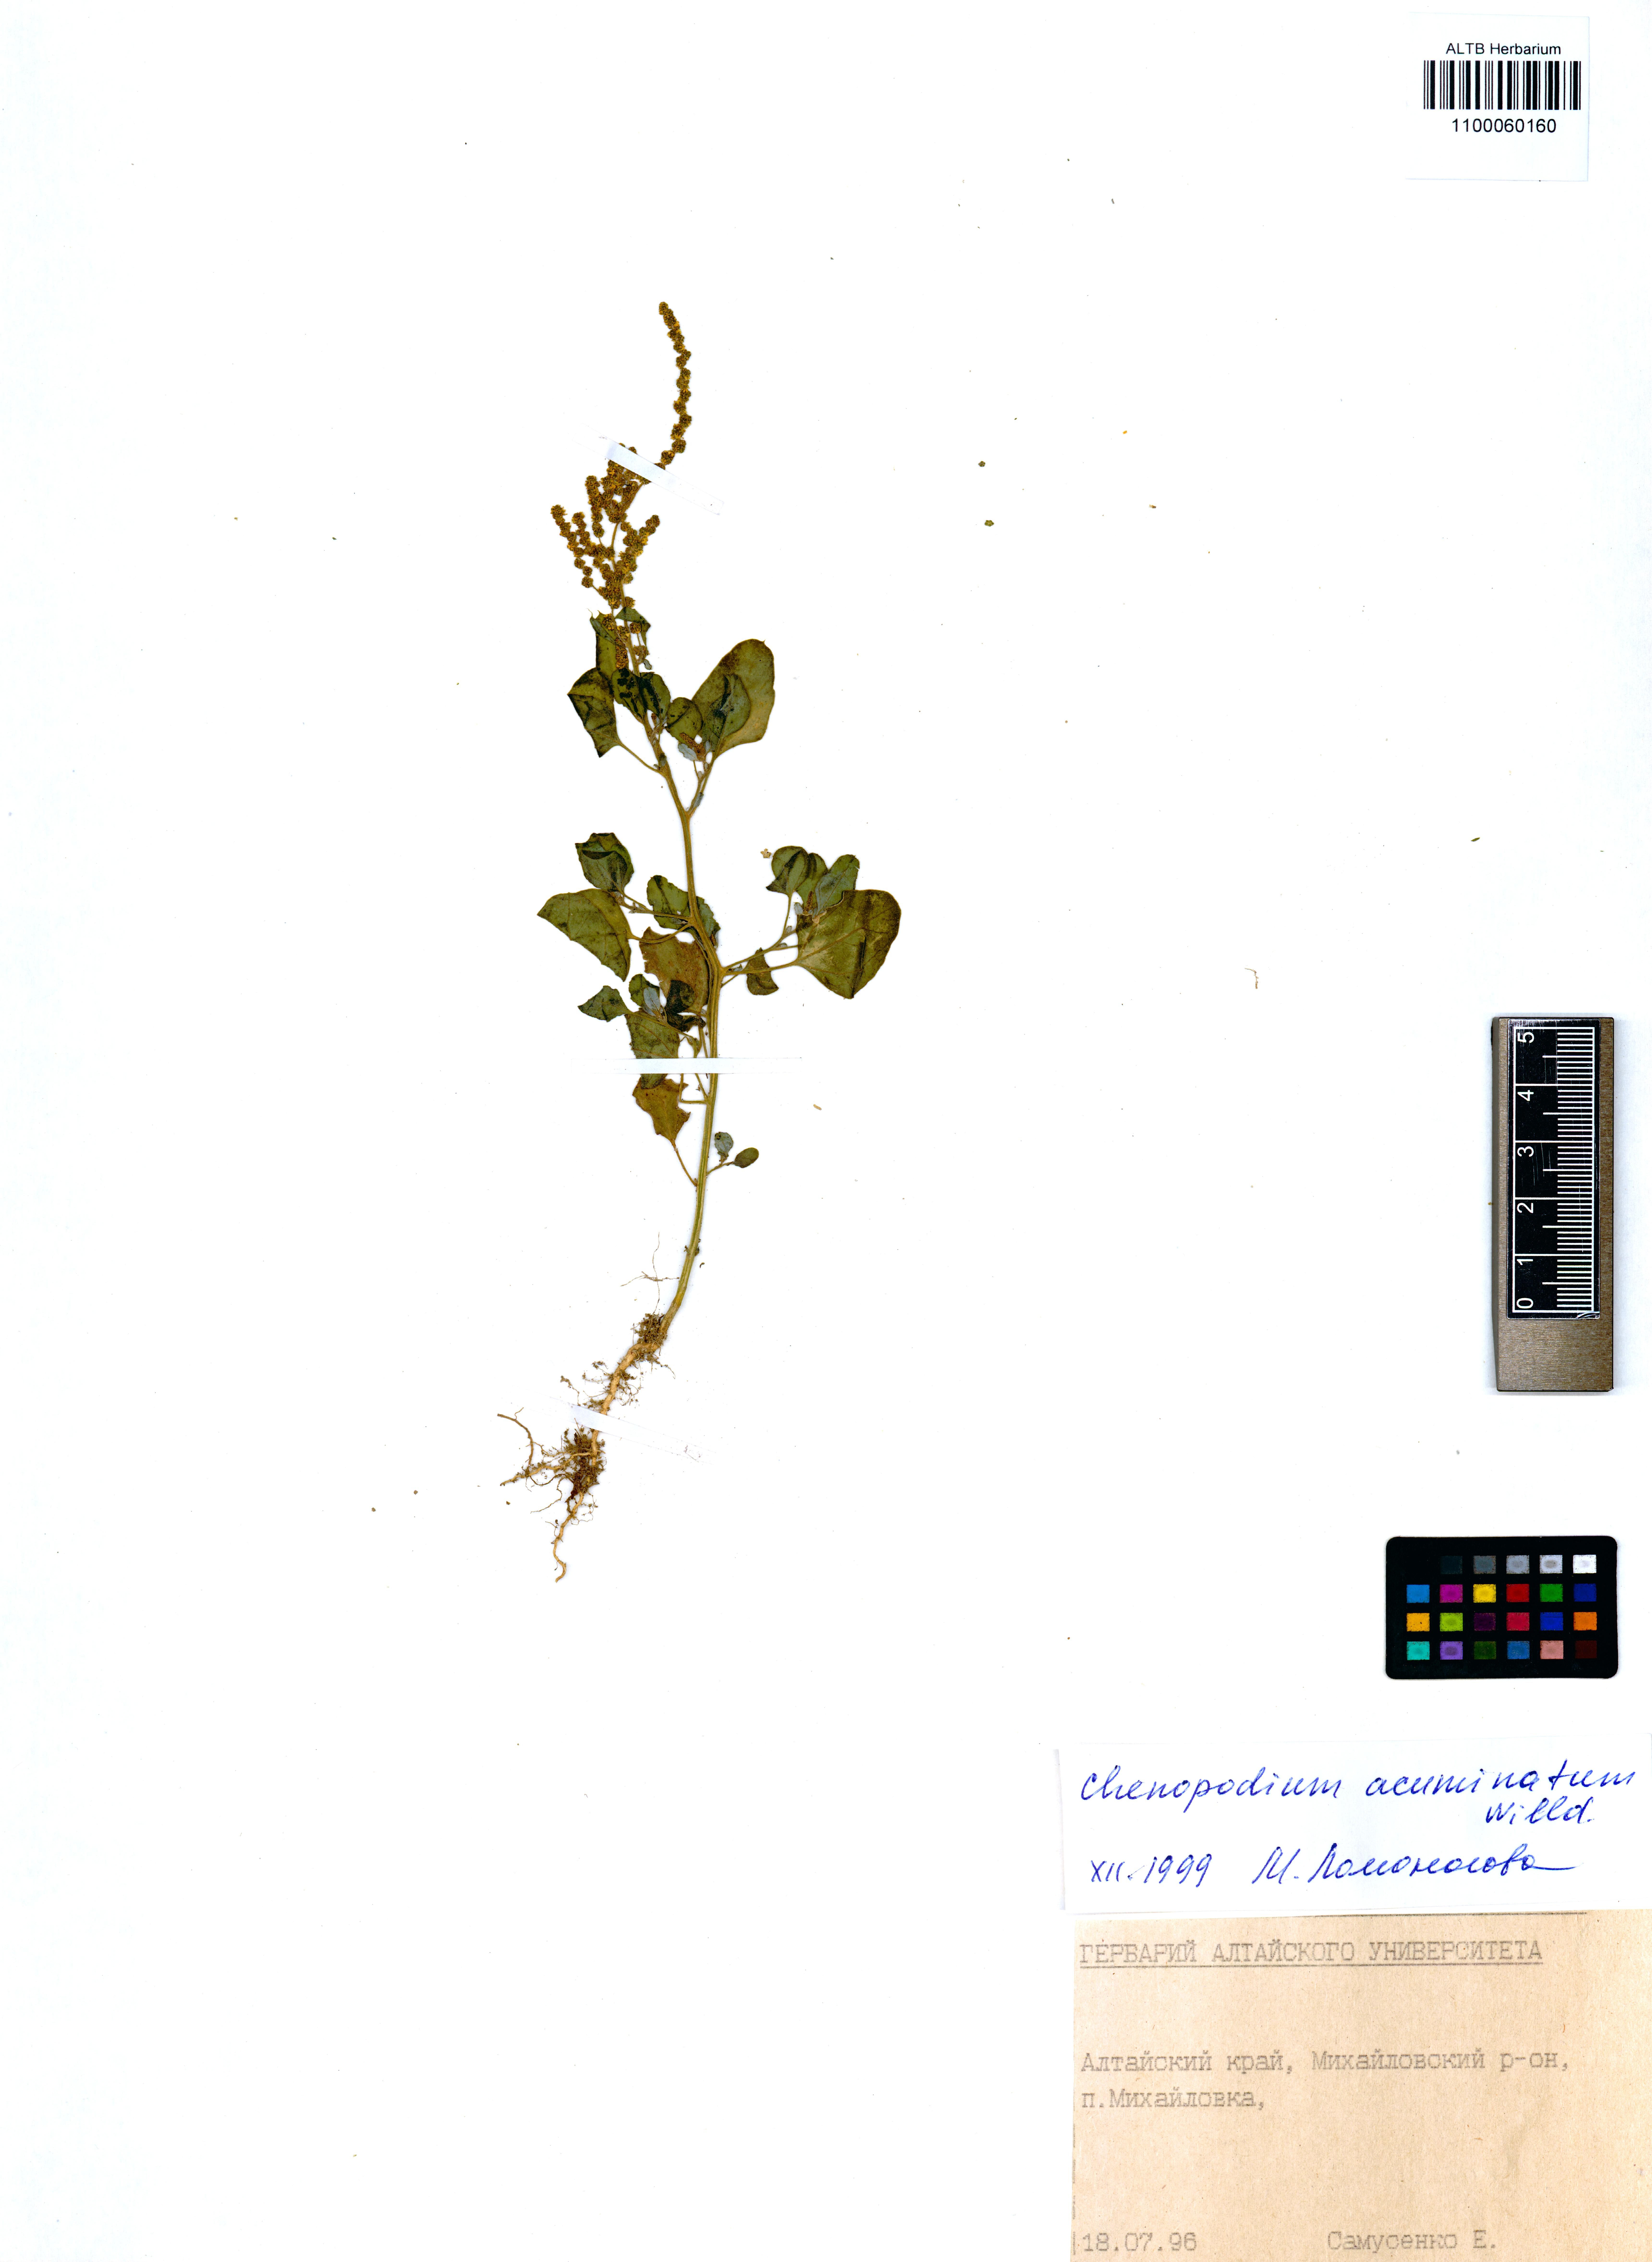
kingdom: Plantae
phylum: Tracheophyta
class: Magnoliopsida
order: Caryophyllales
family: Amaranthaceae
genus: Chenopodium
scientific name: Chenopodium acuminatum
